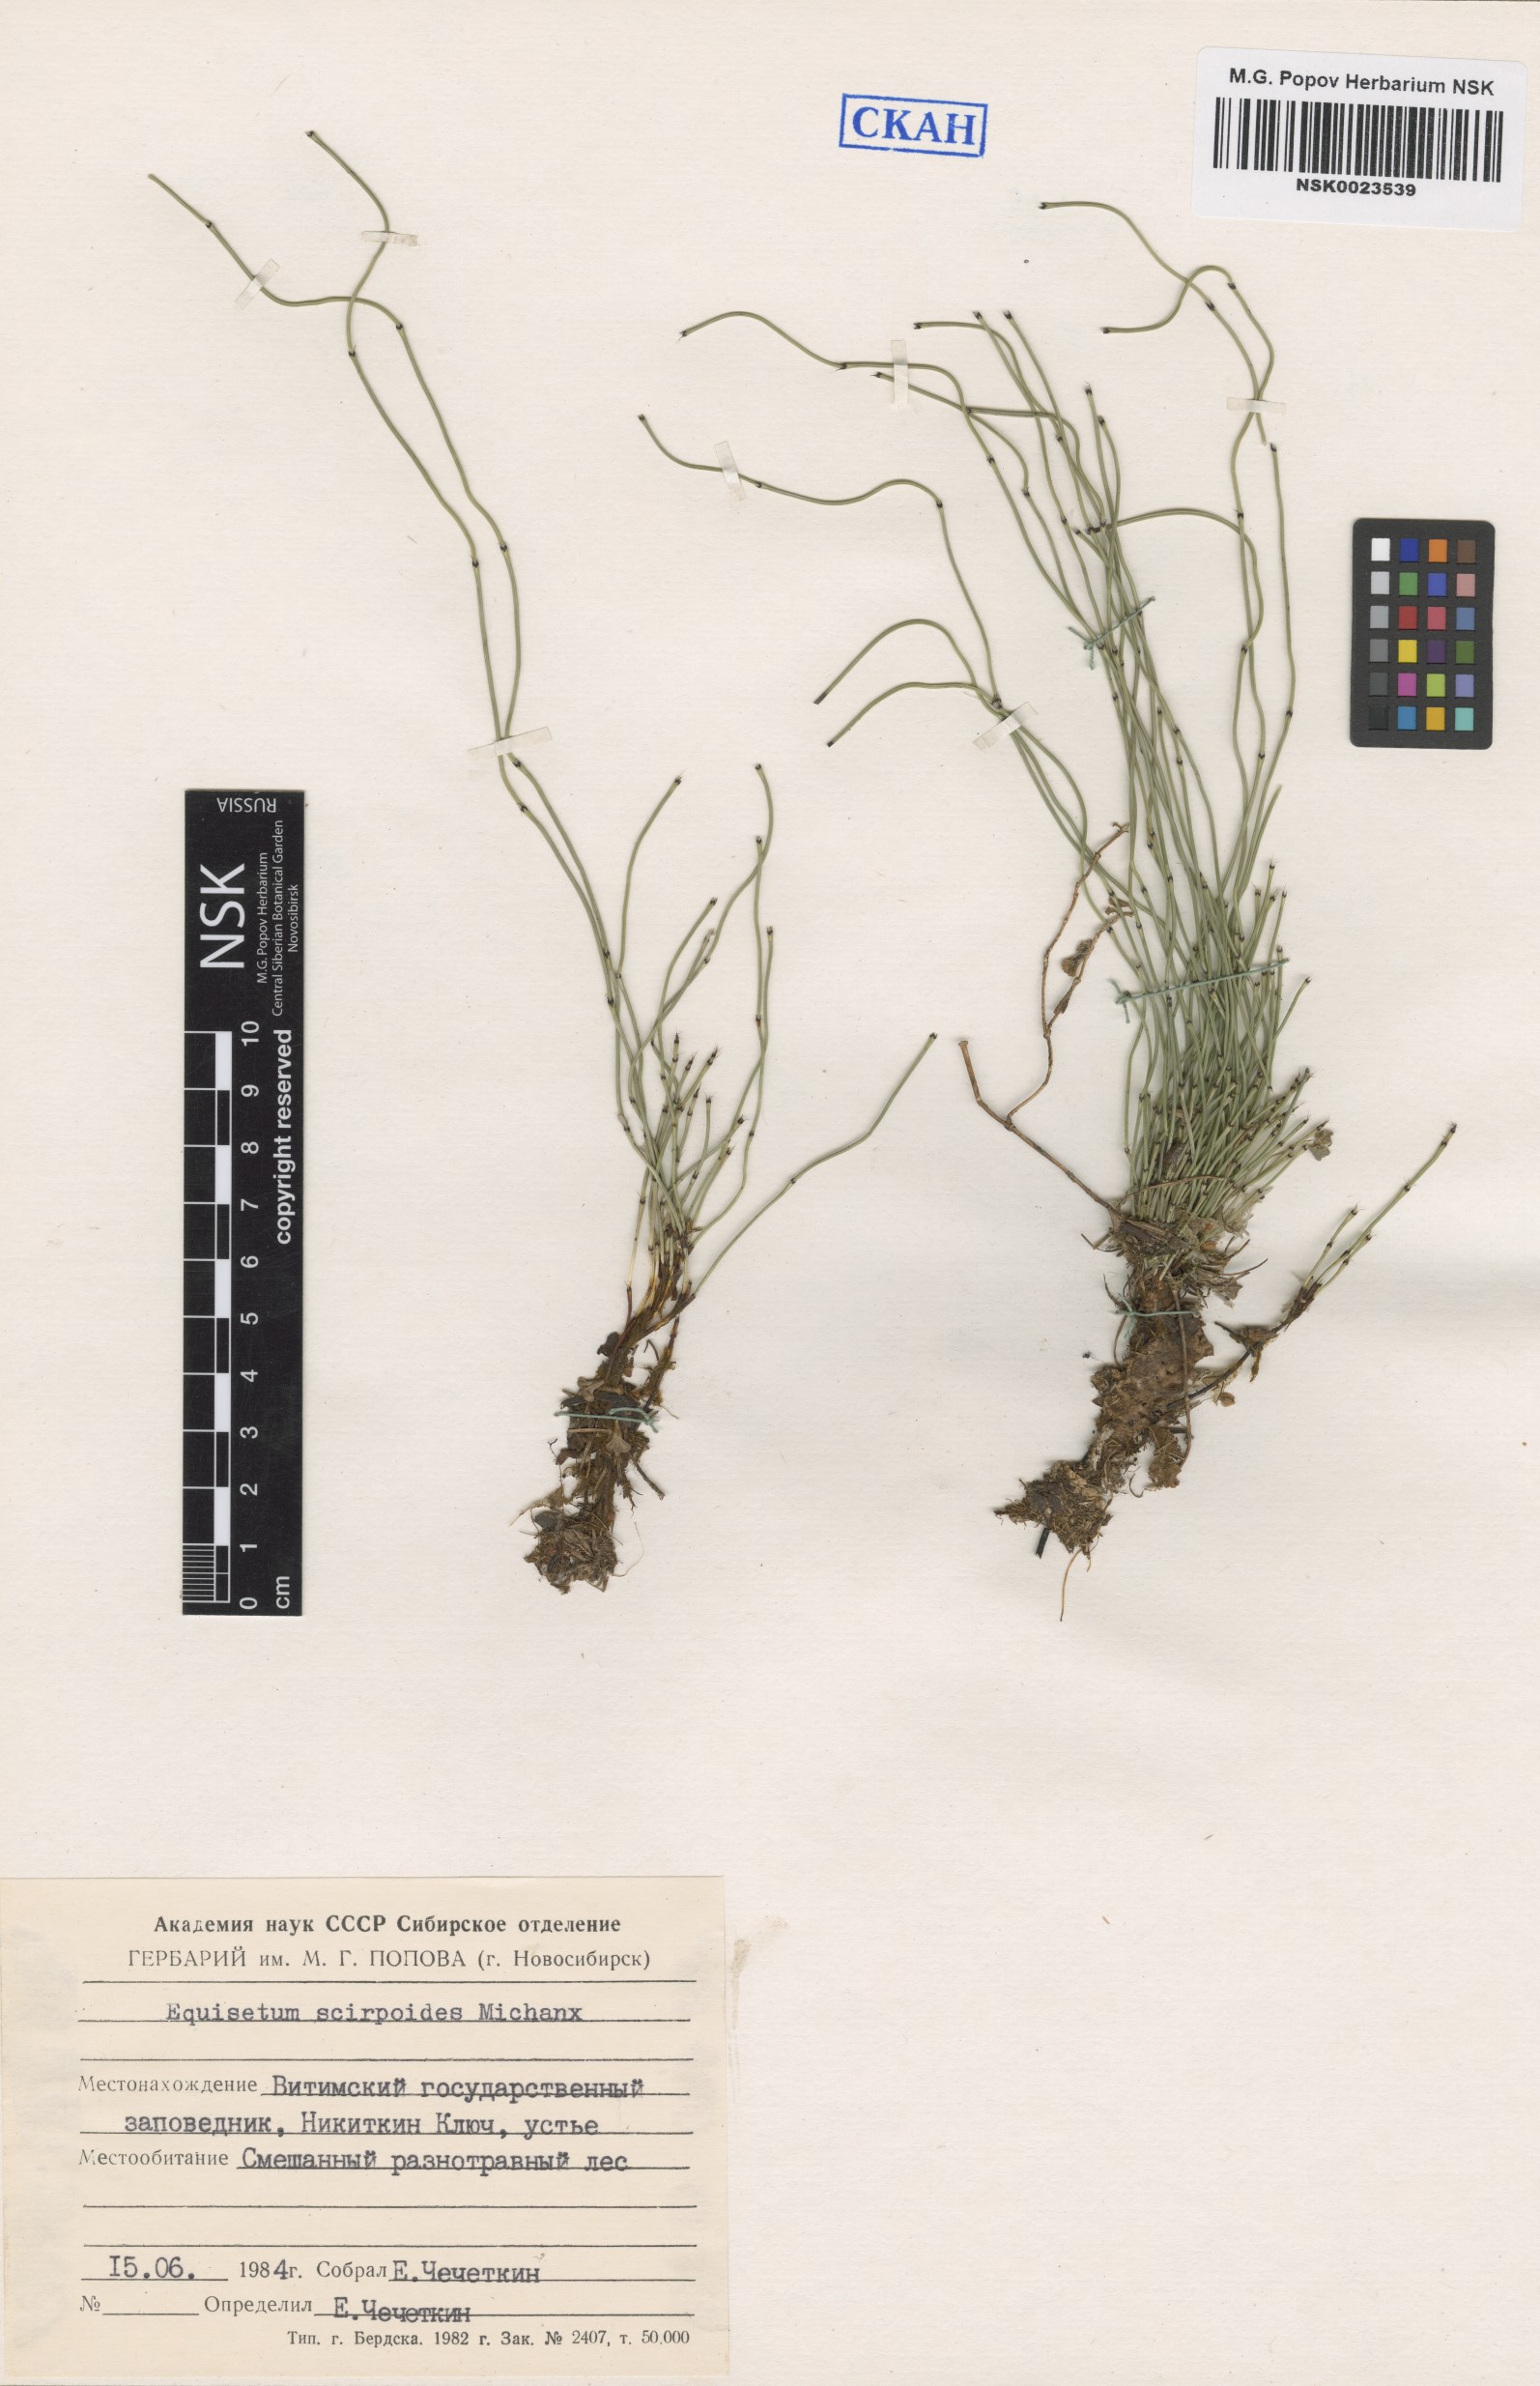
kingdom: Plantae
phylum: Tracheophyta
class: Polypodiopsida
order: Equisetales
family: Equisetaceae
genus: Equisetum
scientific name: Equisetum scirpoides
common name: Delicate horsetail
